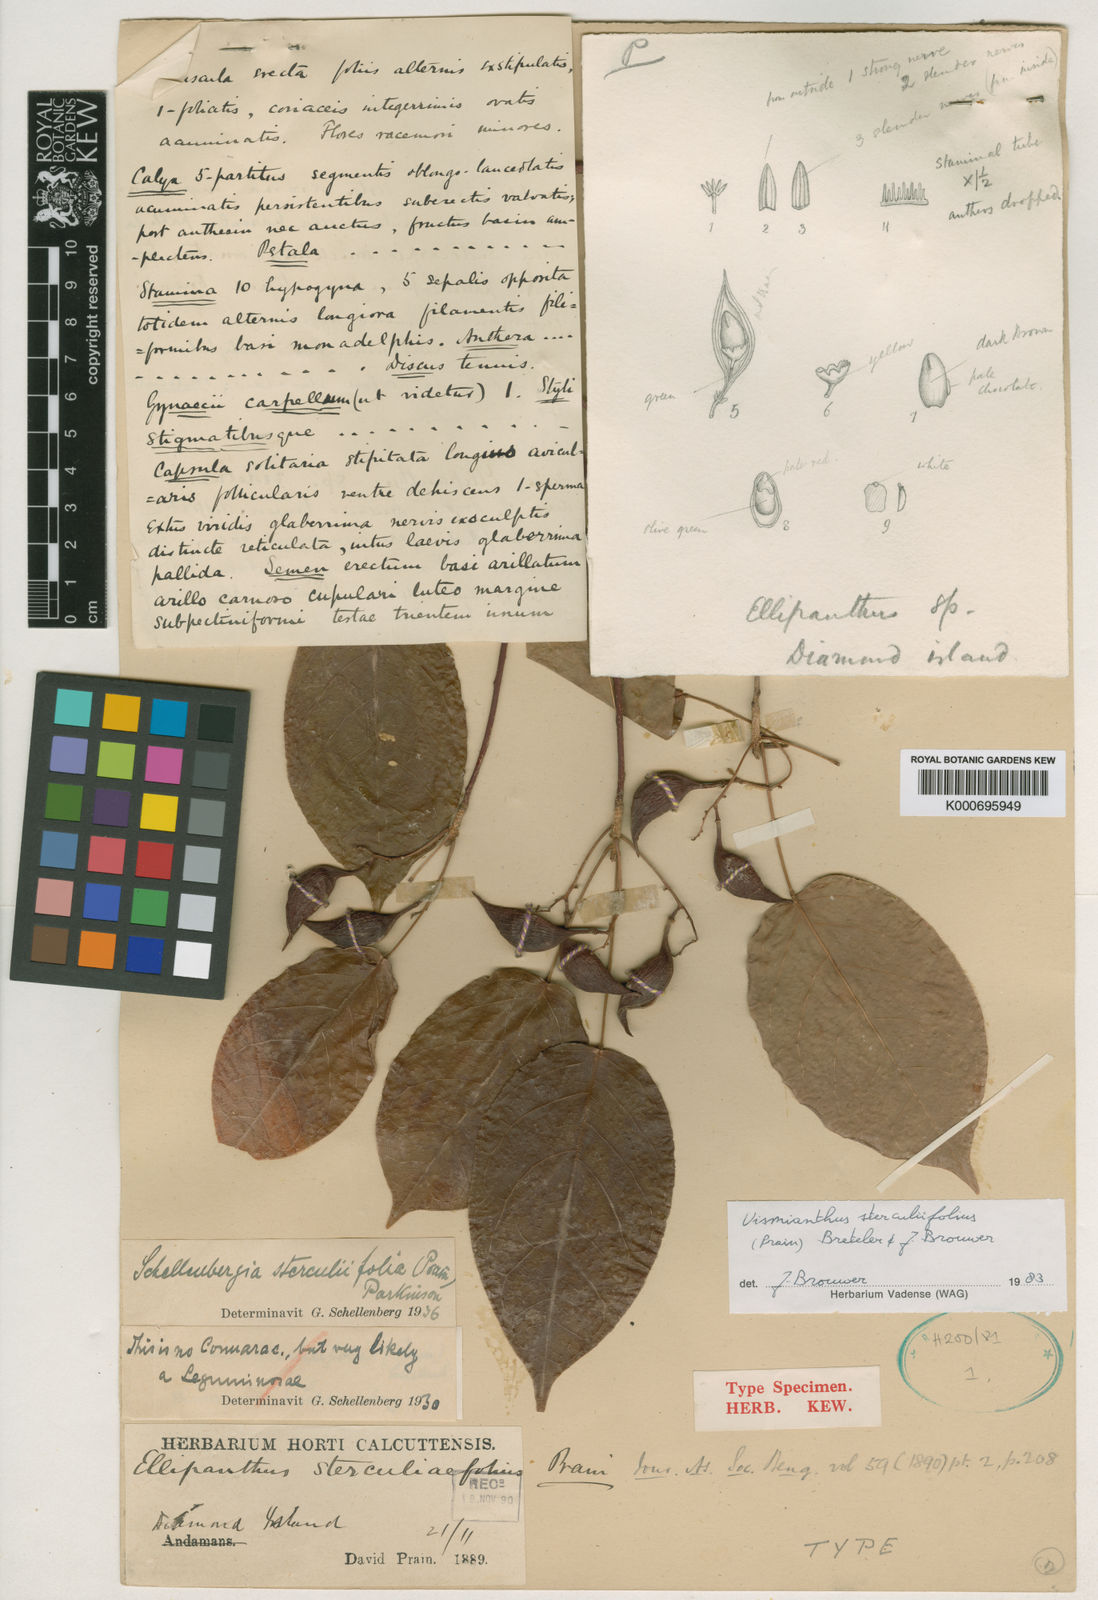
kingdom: Plantae
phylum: Tracheophyta
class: Magnoliopsida
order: Oxalidales
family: Connaraceae
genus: Vismianthus
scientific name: Vismianthus sterculiifolius
